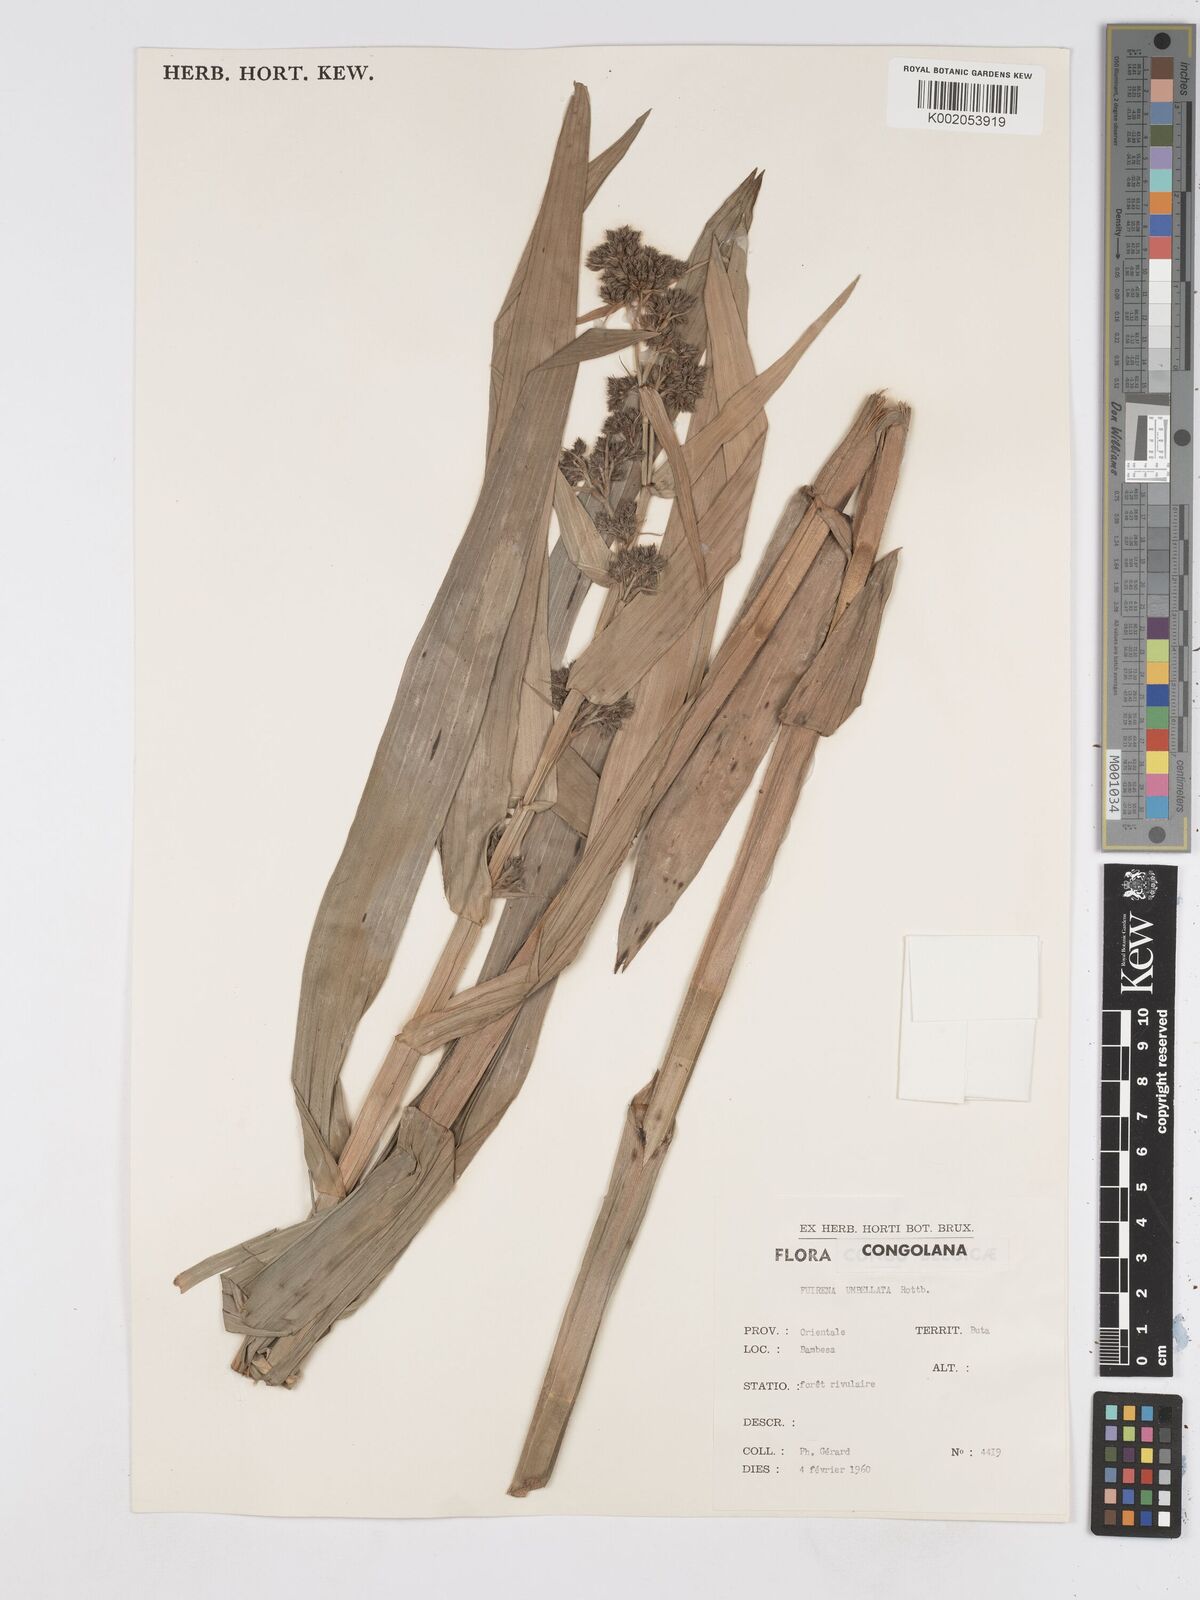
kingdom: Plantae
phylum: Tracheophyta
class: Liliopsida
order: Poales
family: Cyperaceae
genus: Fuirena
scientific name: Fuirena umbellata
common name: Yefen
